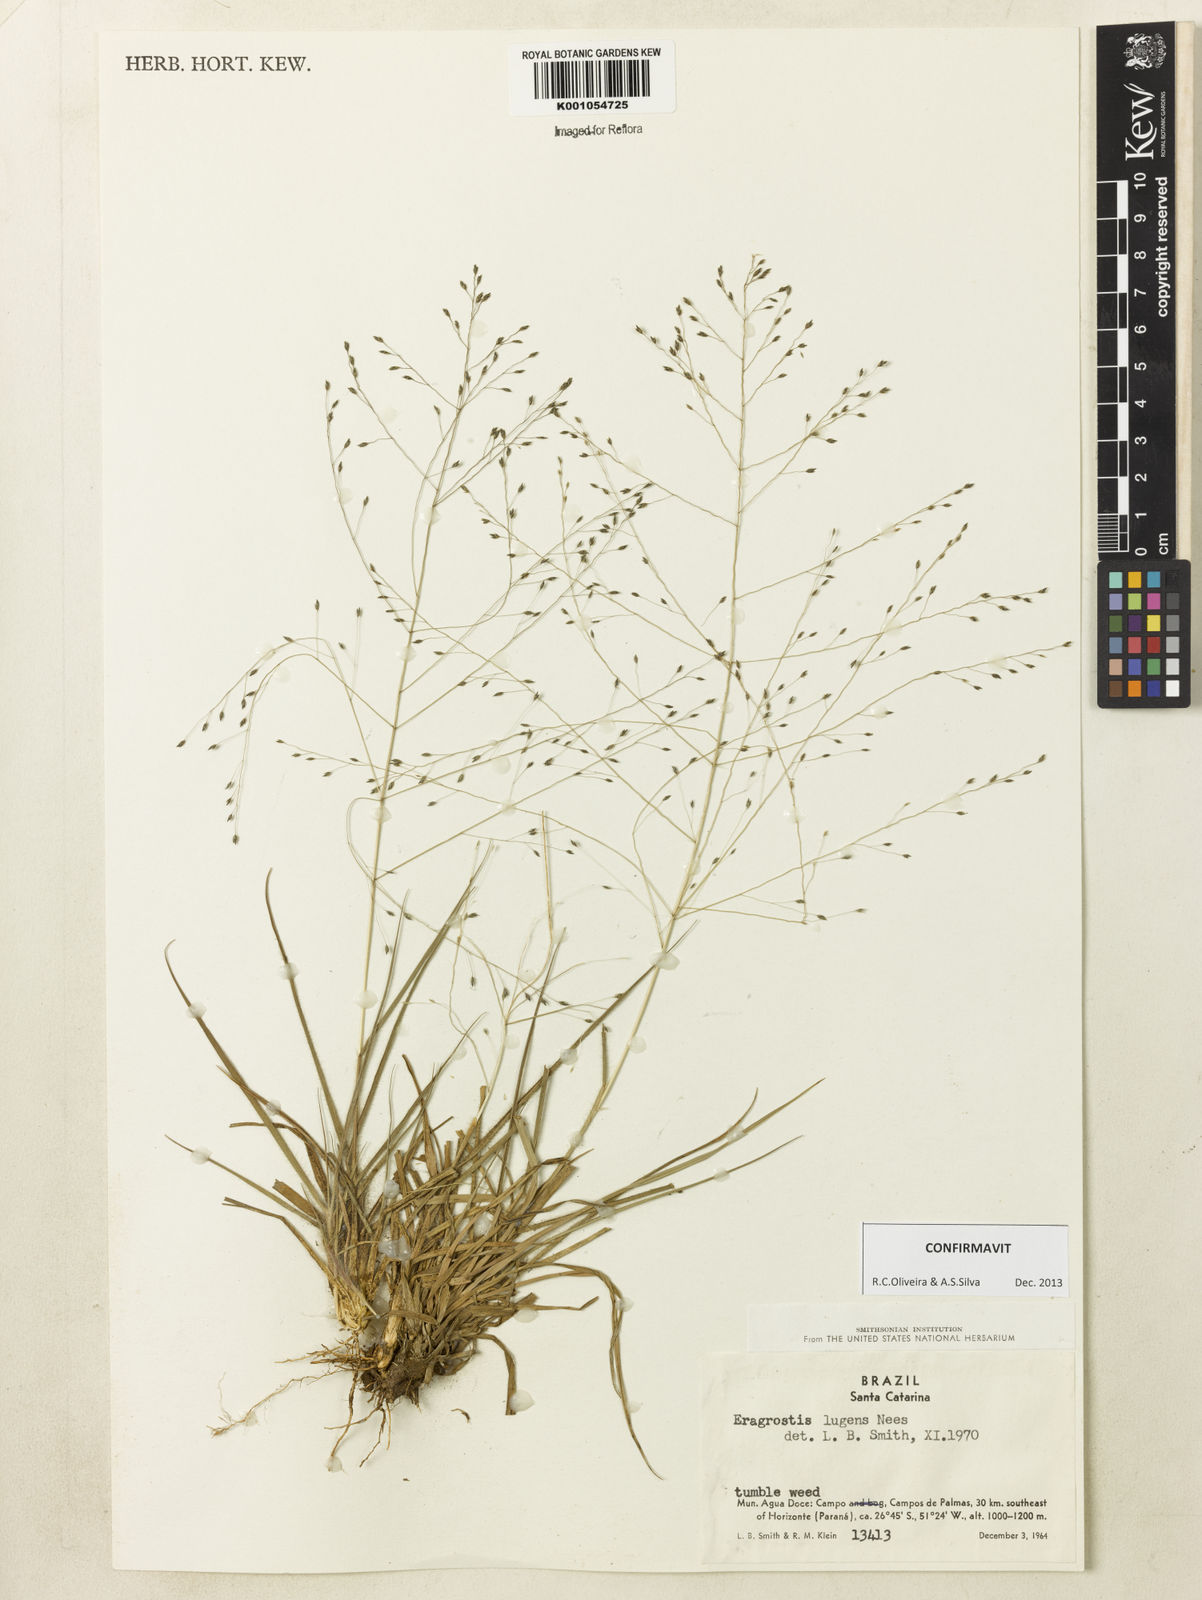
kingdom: Plantae
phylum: Tracheophyta
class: Liliopsida
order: Poales
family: Poaceae
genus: Eragrostis
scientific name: Eragrostis lugens
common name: Mourning love grass
